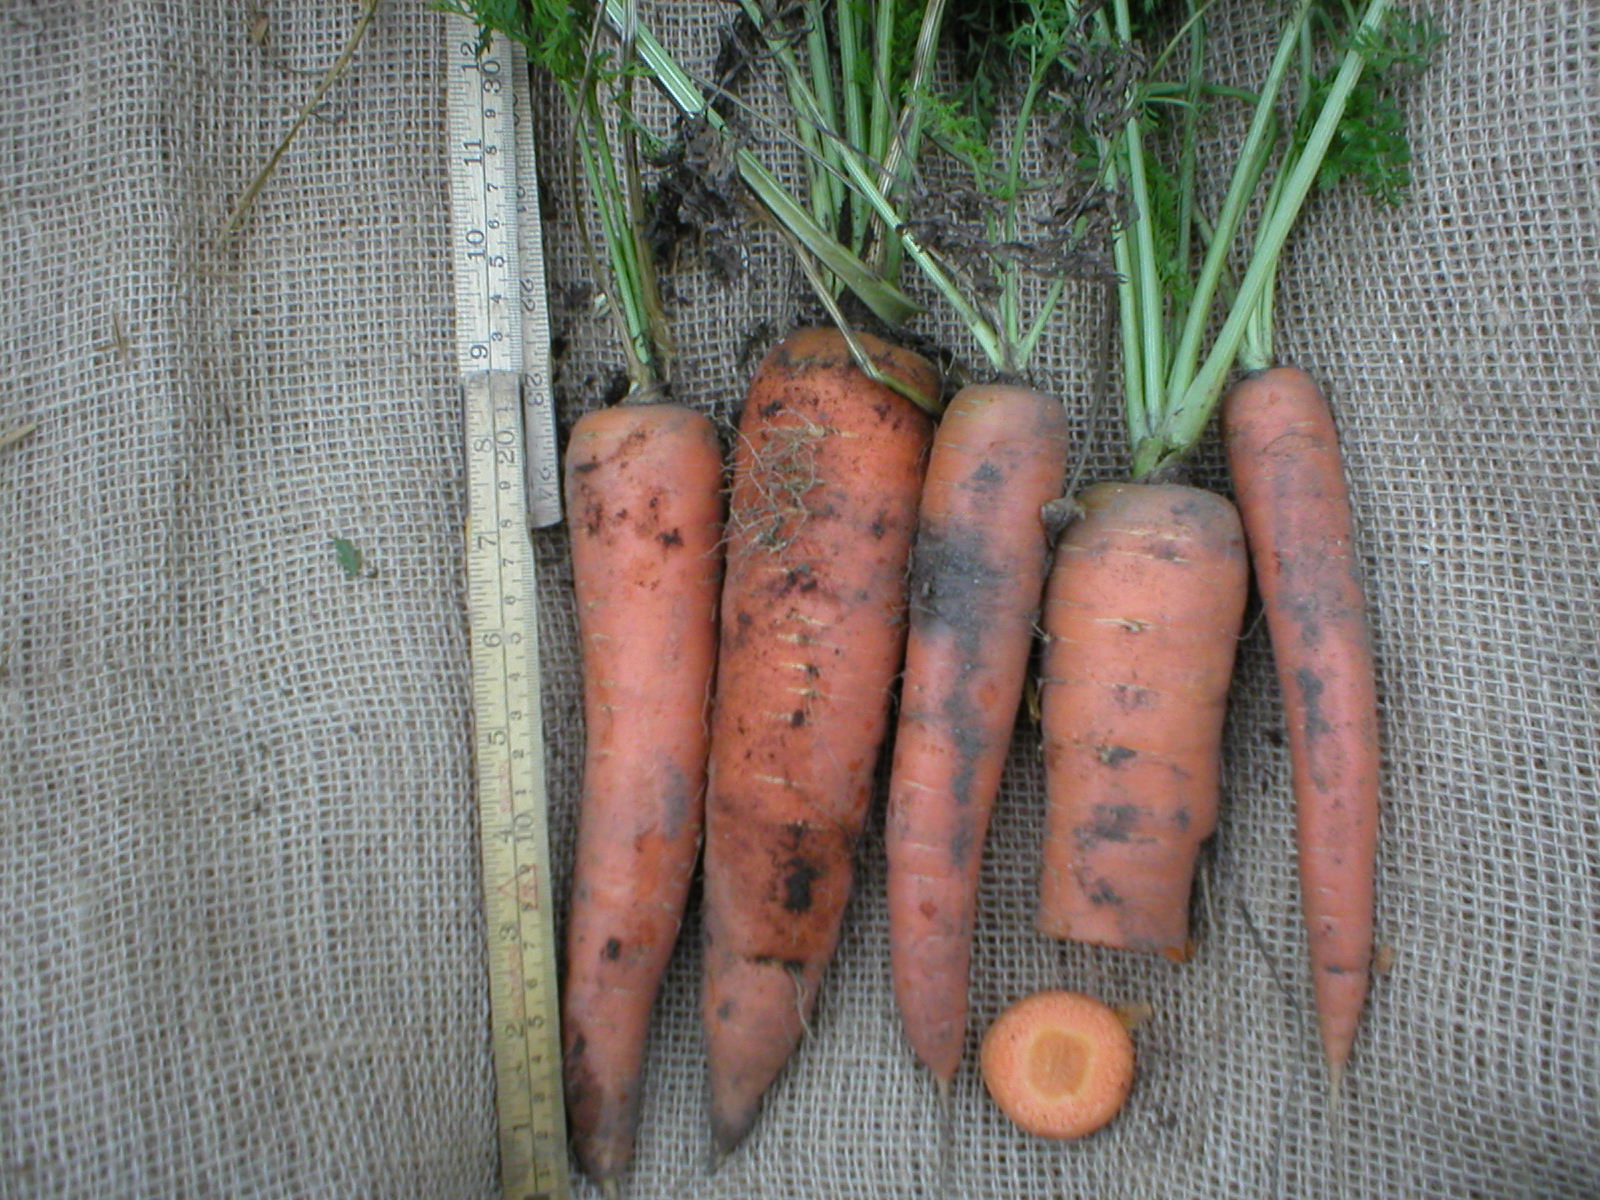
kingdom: Plantae
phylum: Tracheophyta
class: Magnoliopsida
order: Apiales
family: Apiaceae
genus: Daucus
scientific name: Daucus carota
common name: Wild carrot
